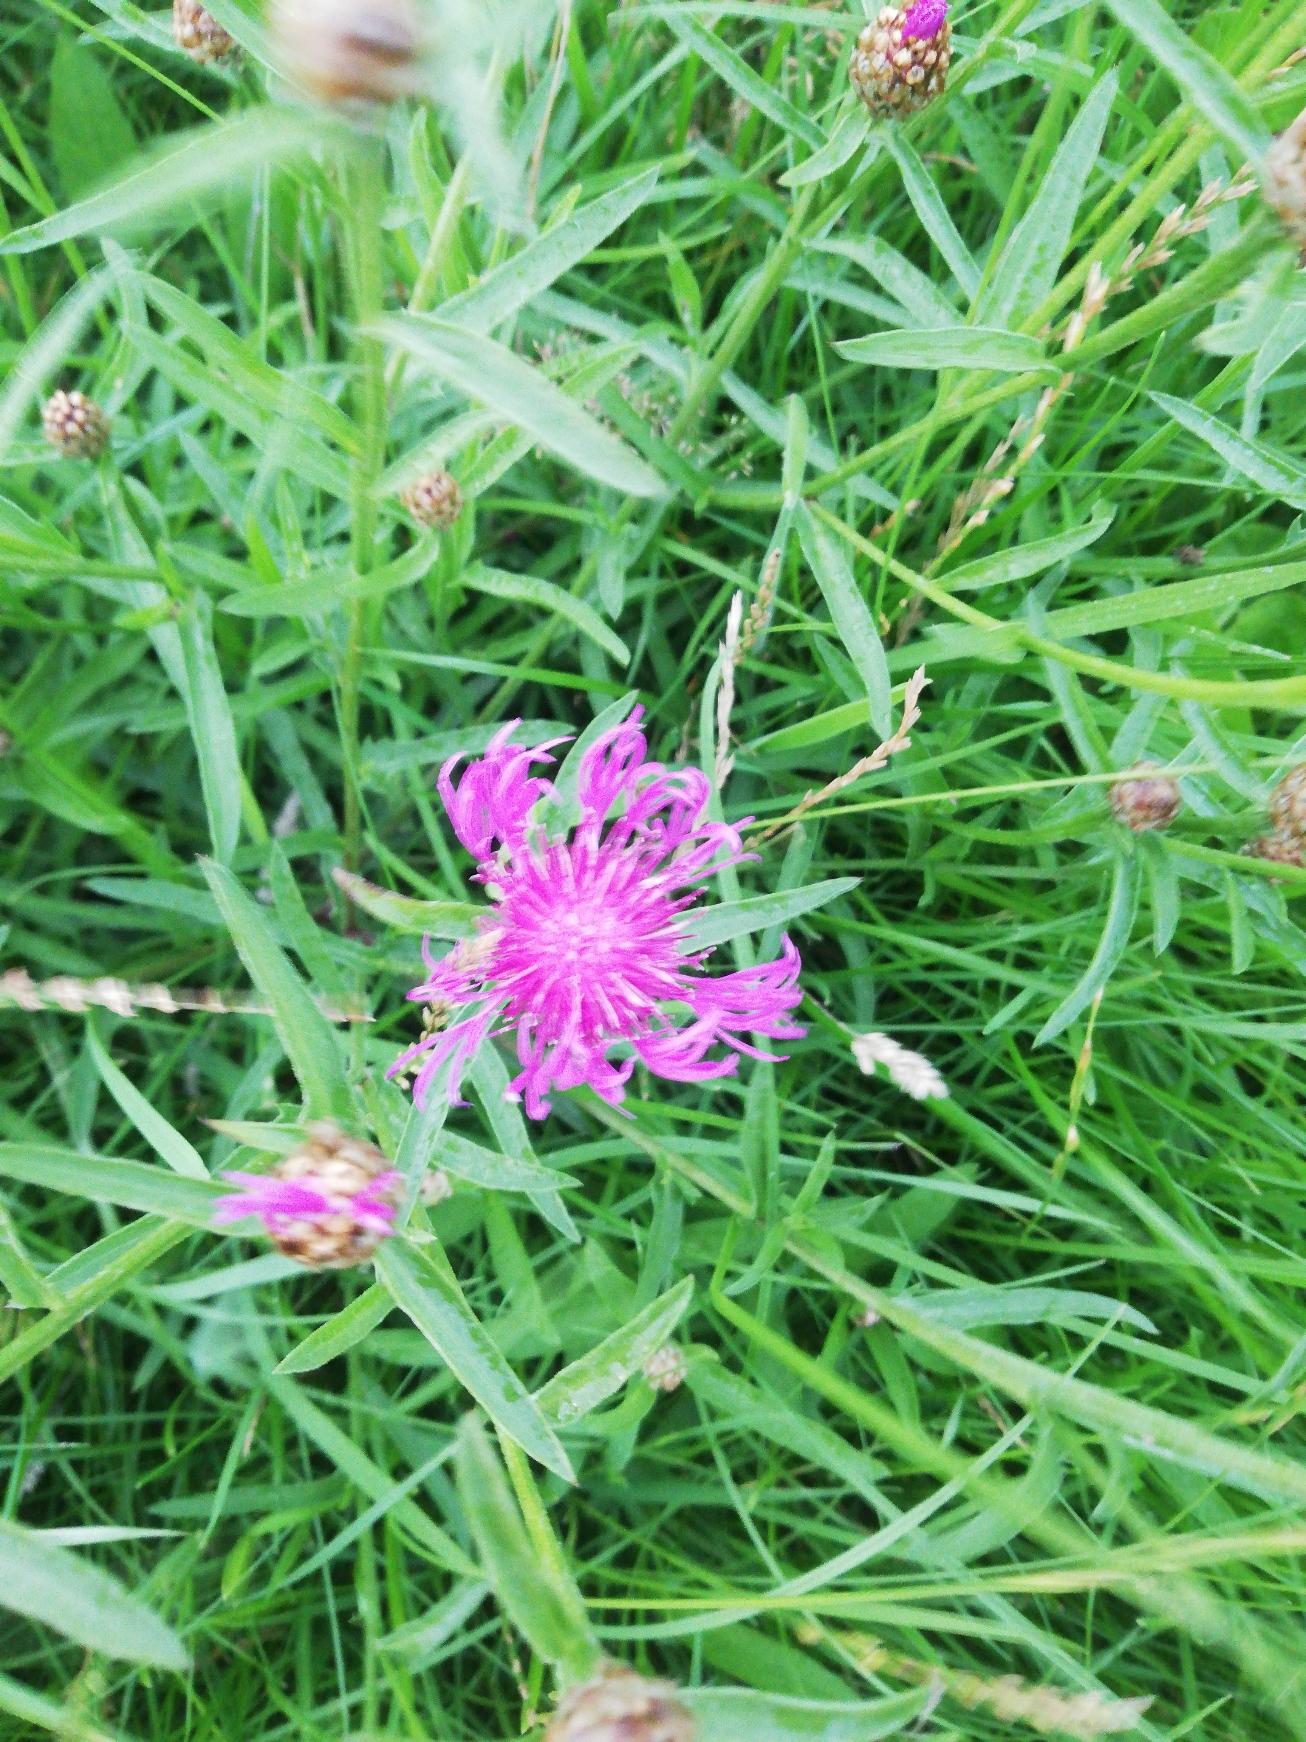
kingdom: Plantae
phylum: Tracheophyta
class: Magnoliopsida
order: Asterales
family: Asteraceae
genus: Centaurea
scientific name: Centaurea jacea
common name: Almindelig knopurt
